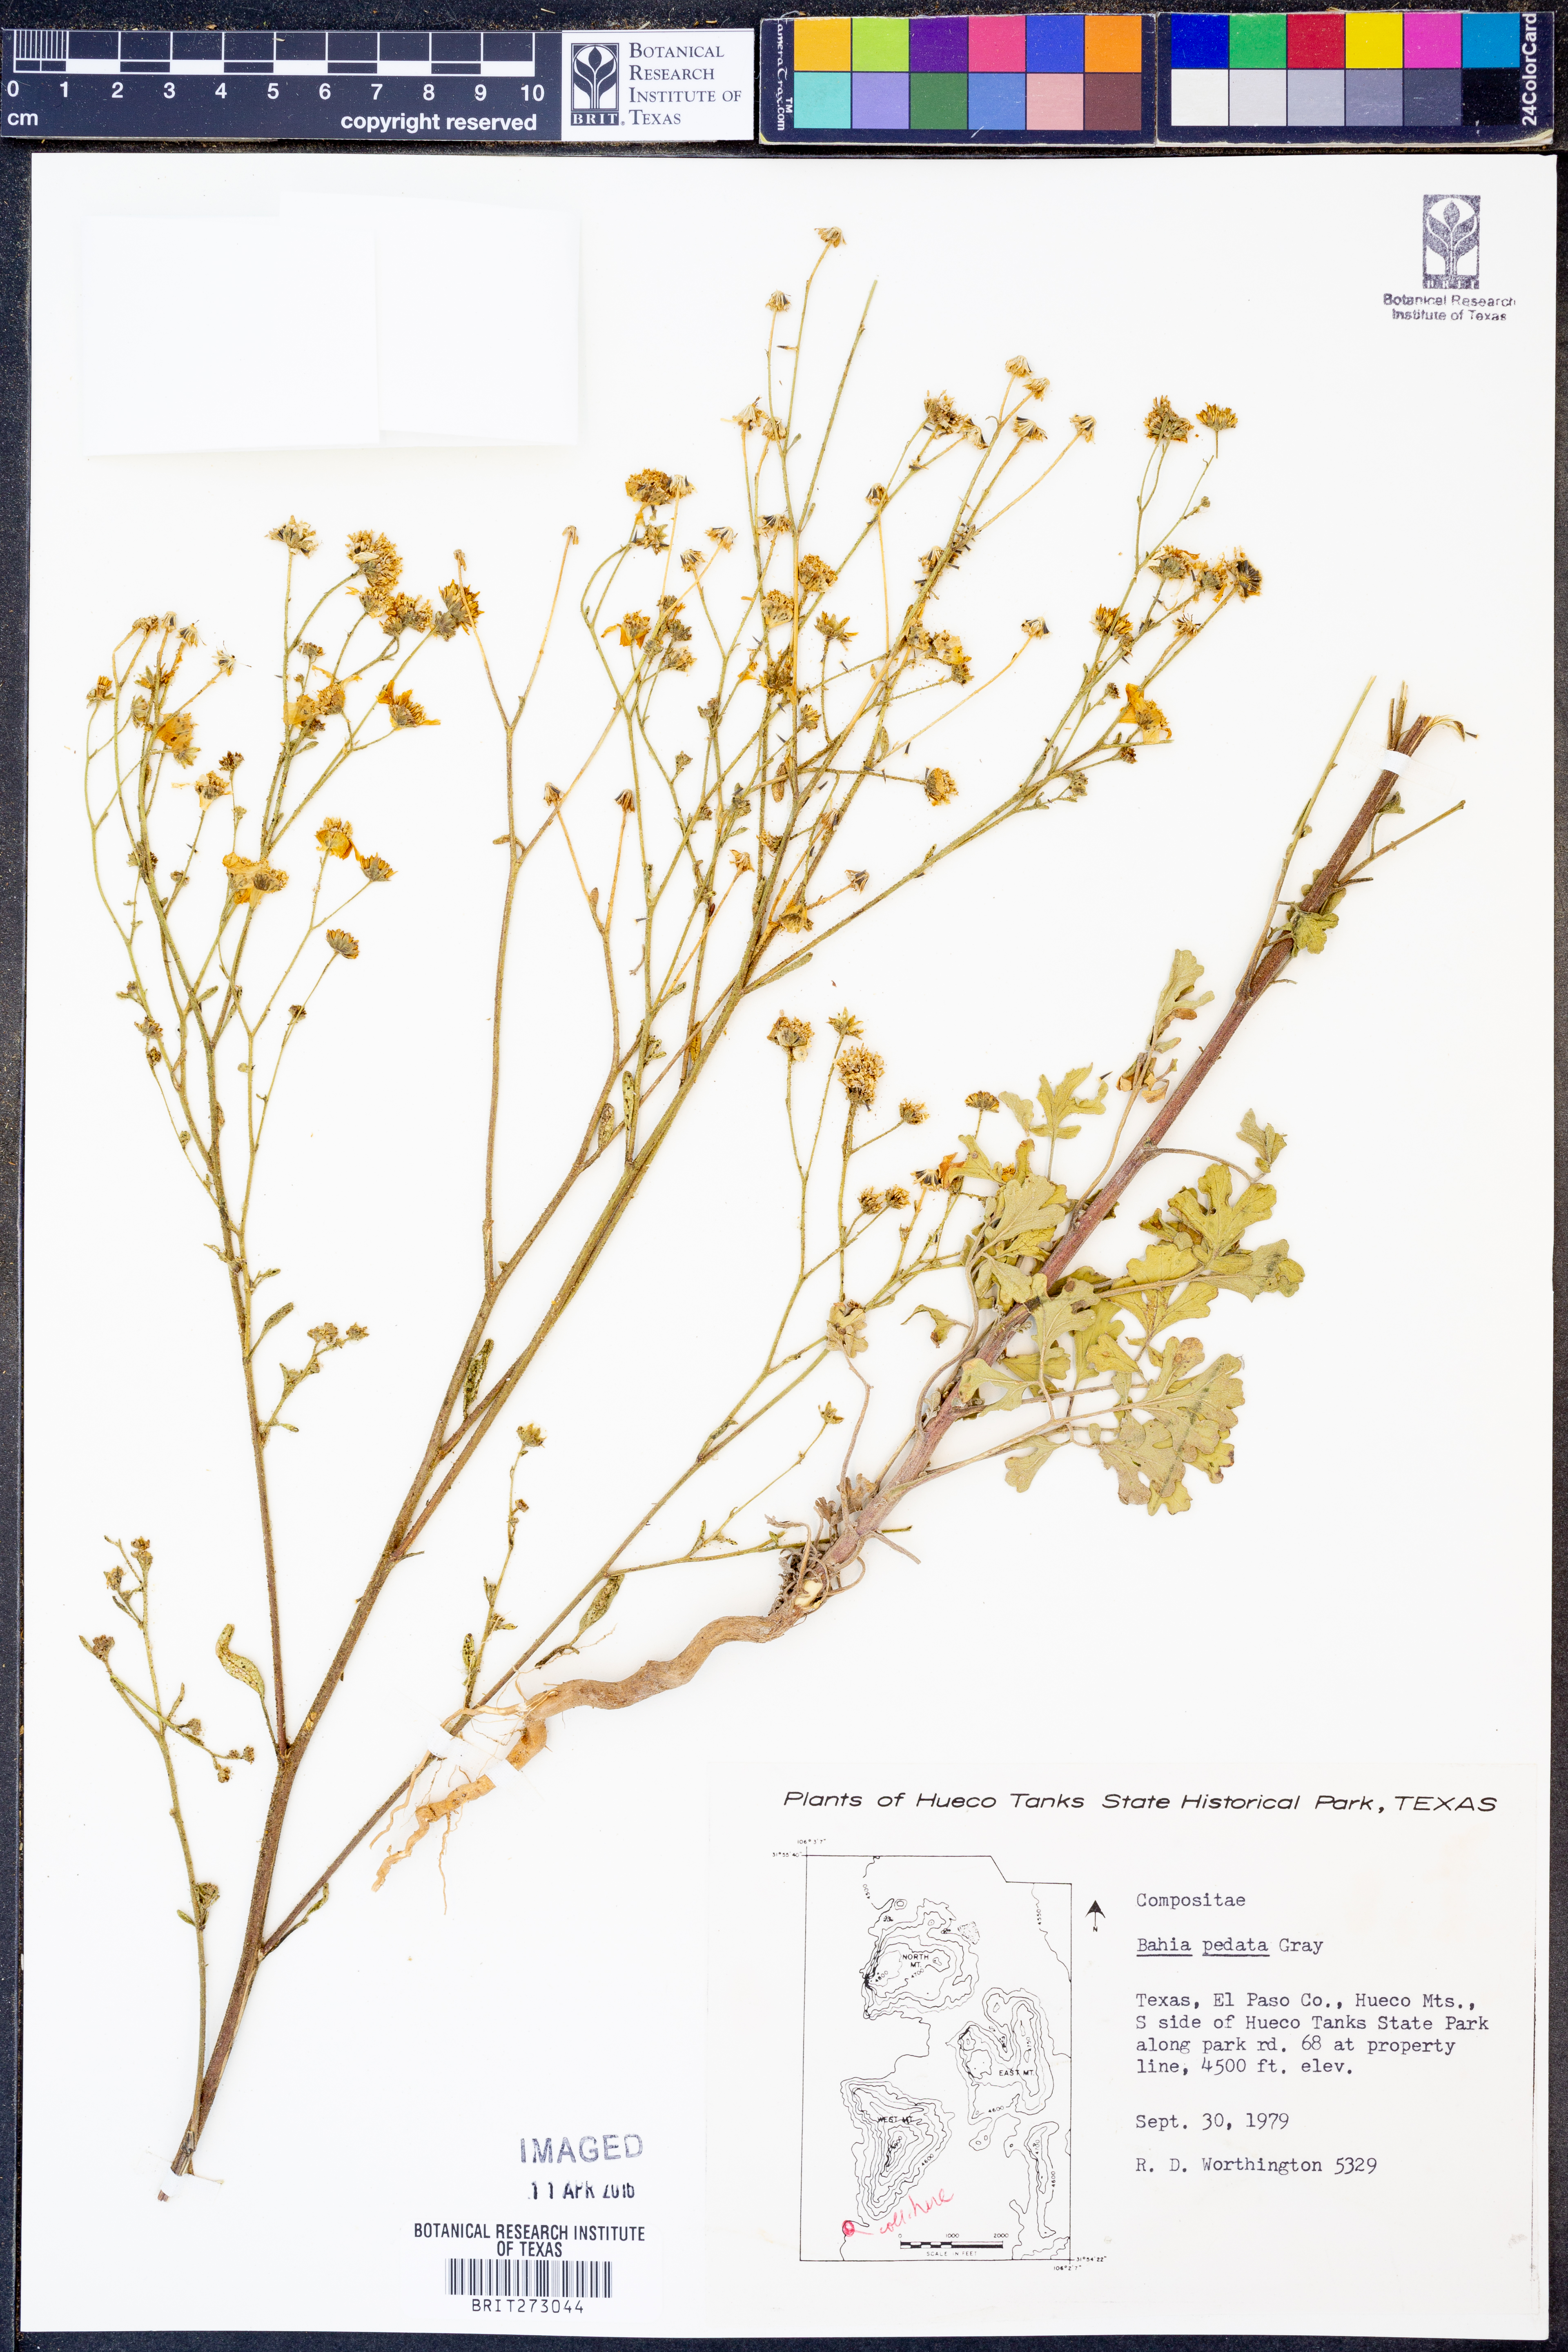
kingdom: Plantae
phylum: Tracheophyta
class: Magnoliopsida
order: Asterales
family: Asteraceae
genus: Hymenothrix
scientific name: Hymenothrix pedata
